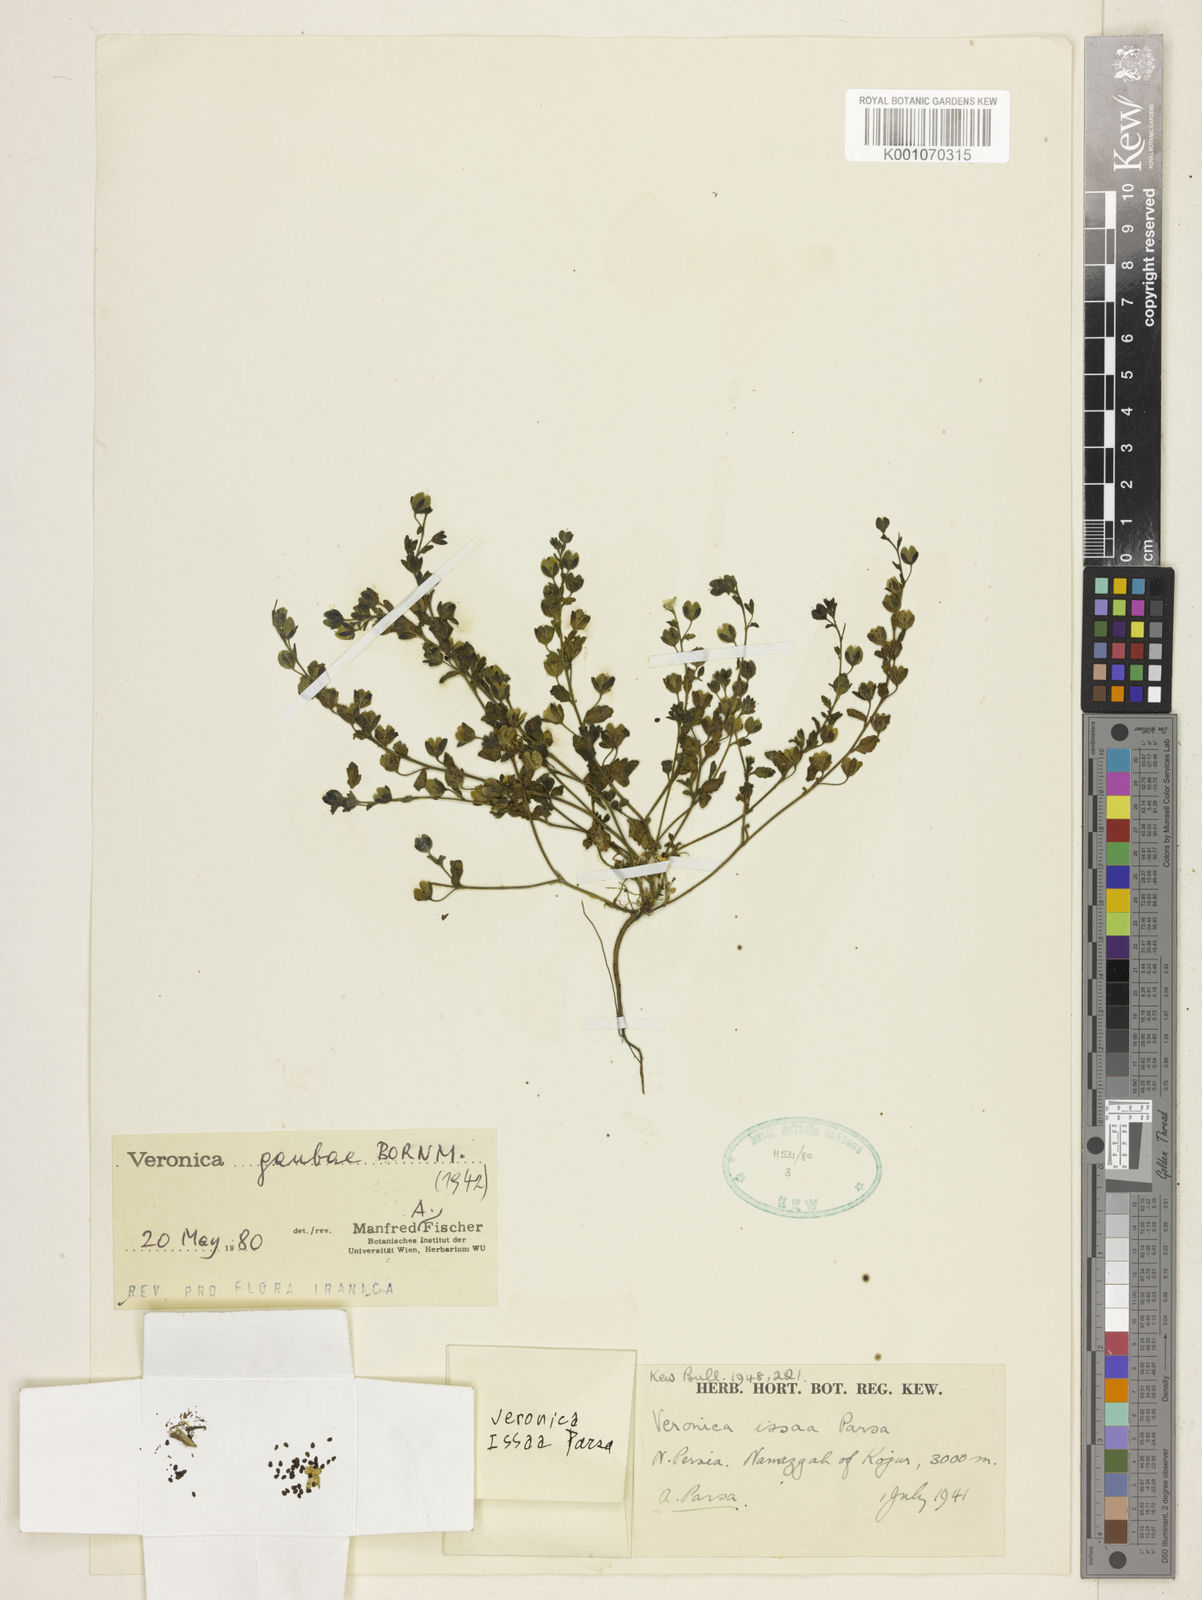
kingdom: Plantae
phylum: Tracheophyta
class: Magnoliopsida
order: Lamiales
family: Plantaginaceae
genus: Veronica
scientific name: Veronica gaubae
